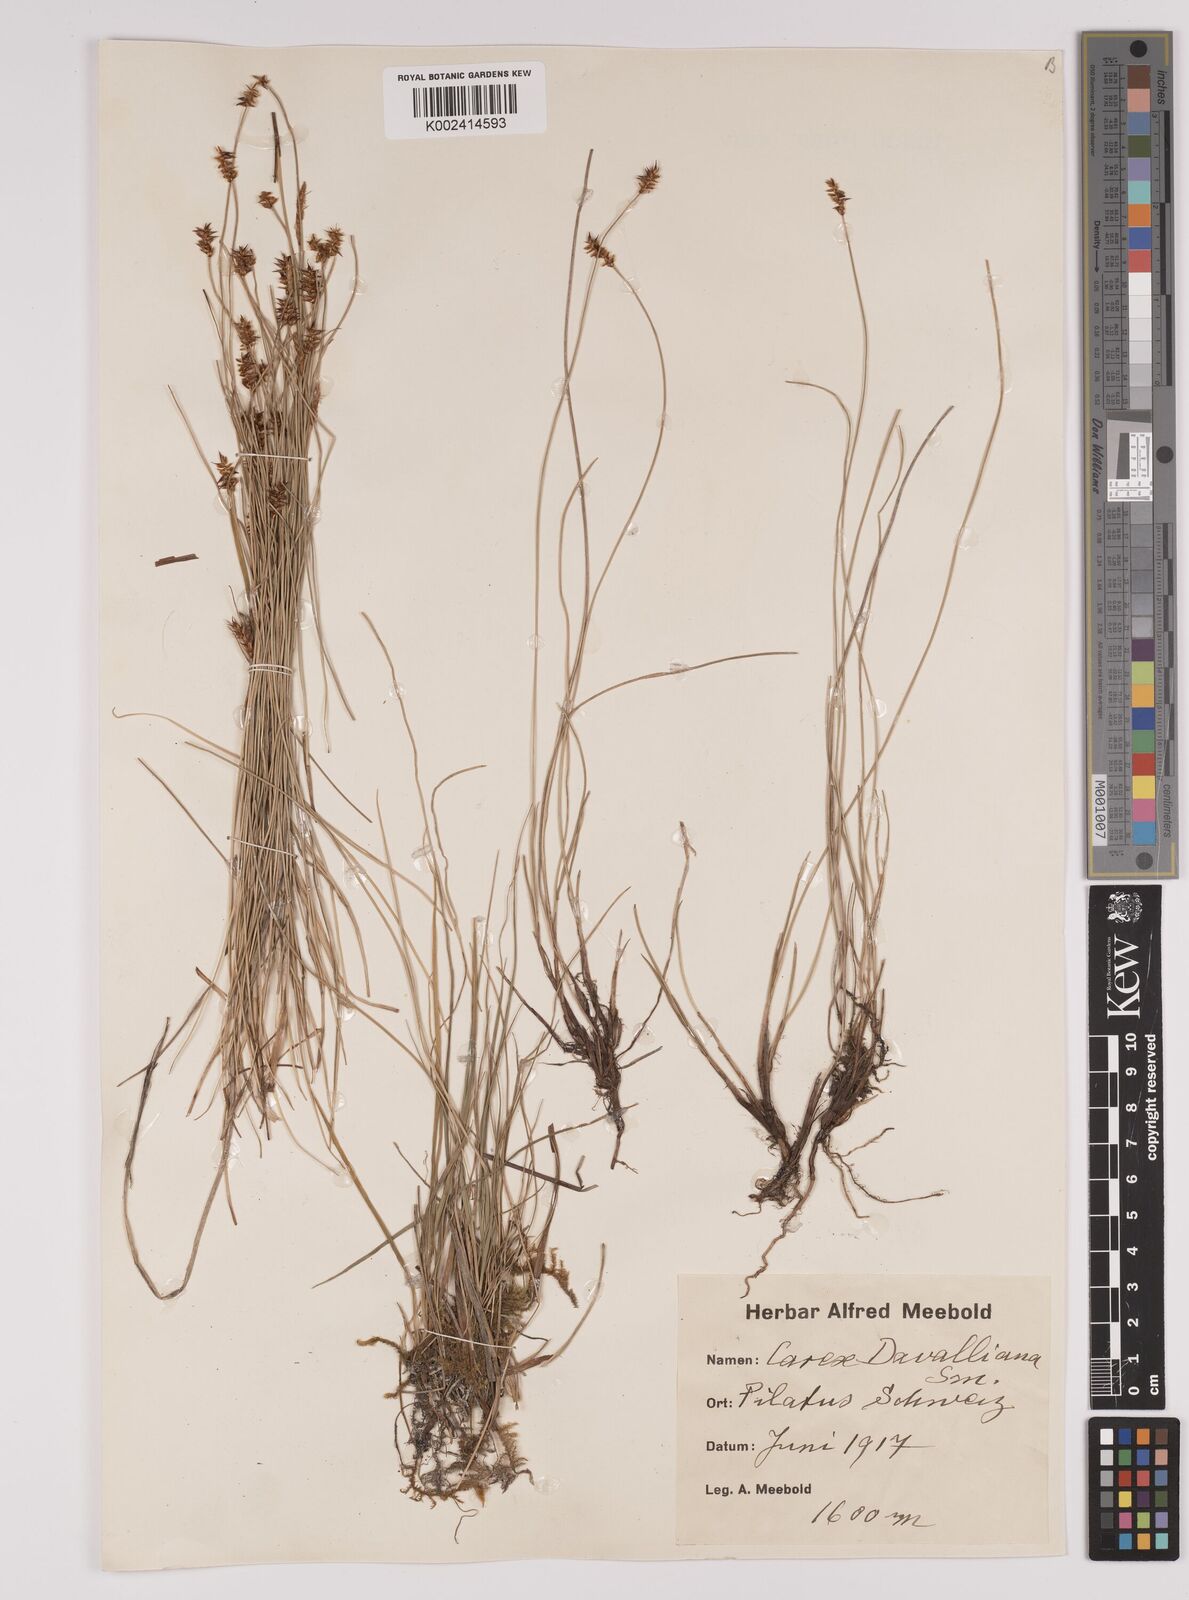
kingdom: Plantae
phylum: Tracheophyta
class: Liliopsida
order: Poales
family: Cyperaceae
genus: Carex
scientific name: Carex davalliana
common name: Davall's sedge
